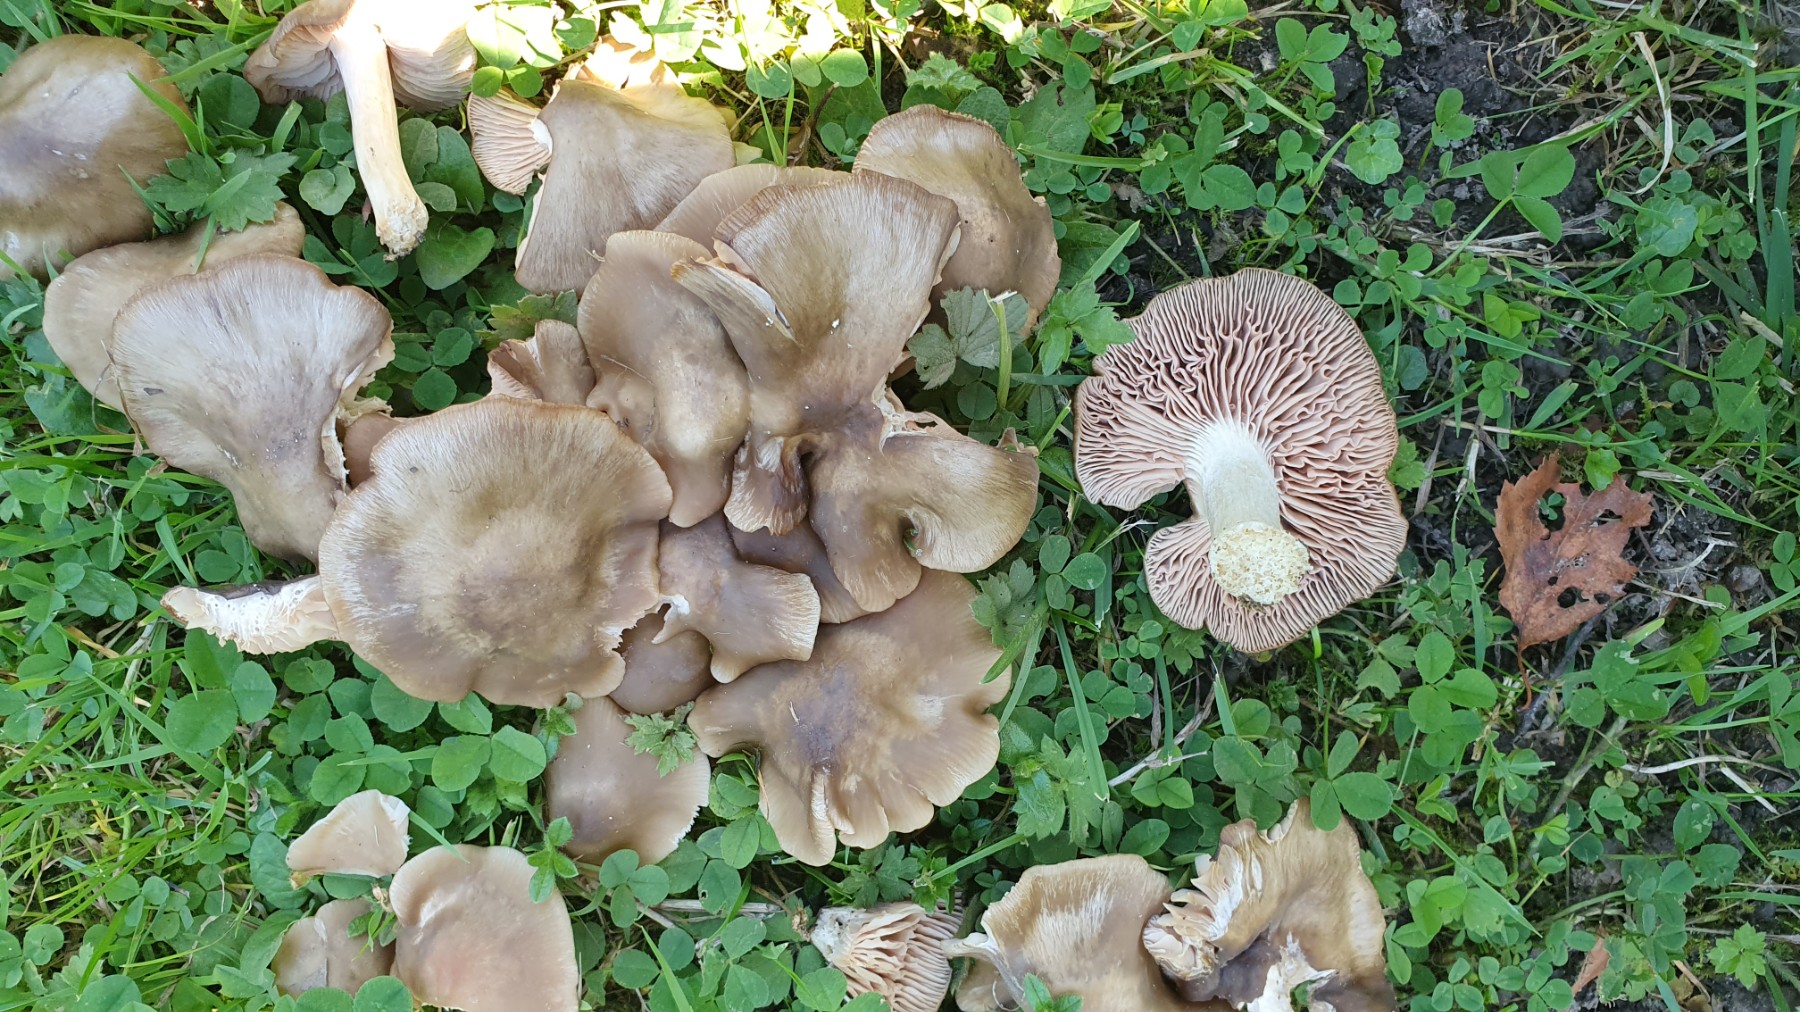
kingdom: Fungi
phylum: Basidiomycota
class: Agaricomycetes
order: Agaricales
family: Entolomataceae
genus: Entoloma
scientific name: Entoloma lividoalbum
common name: lysstokket rødblad
